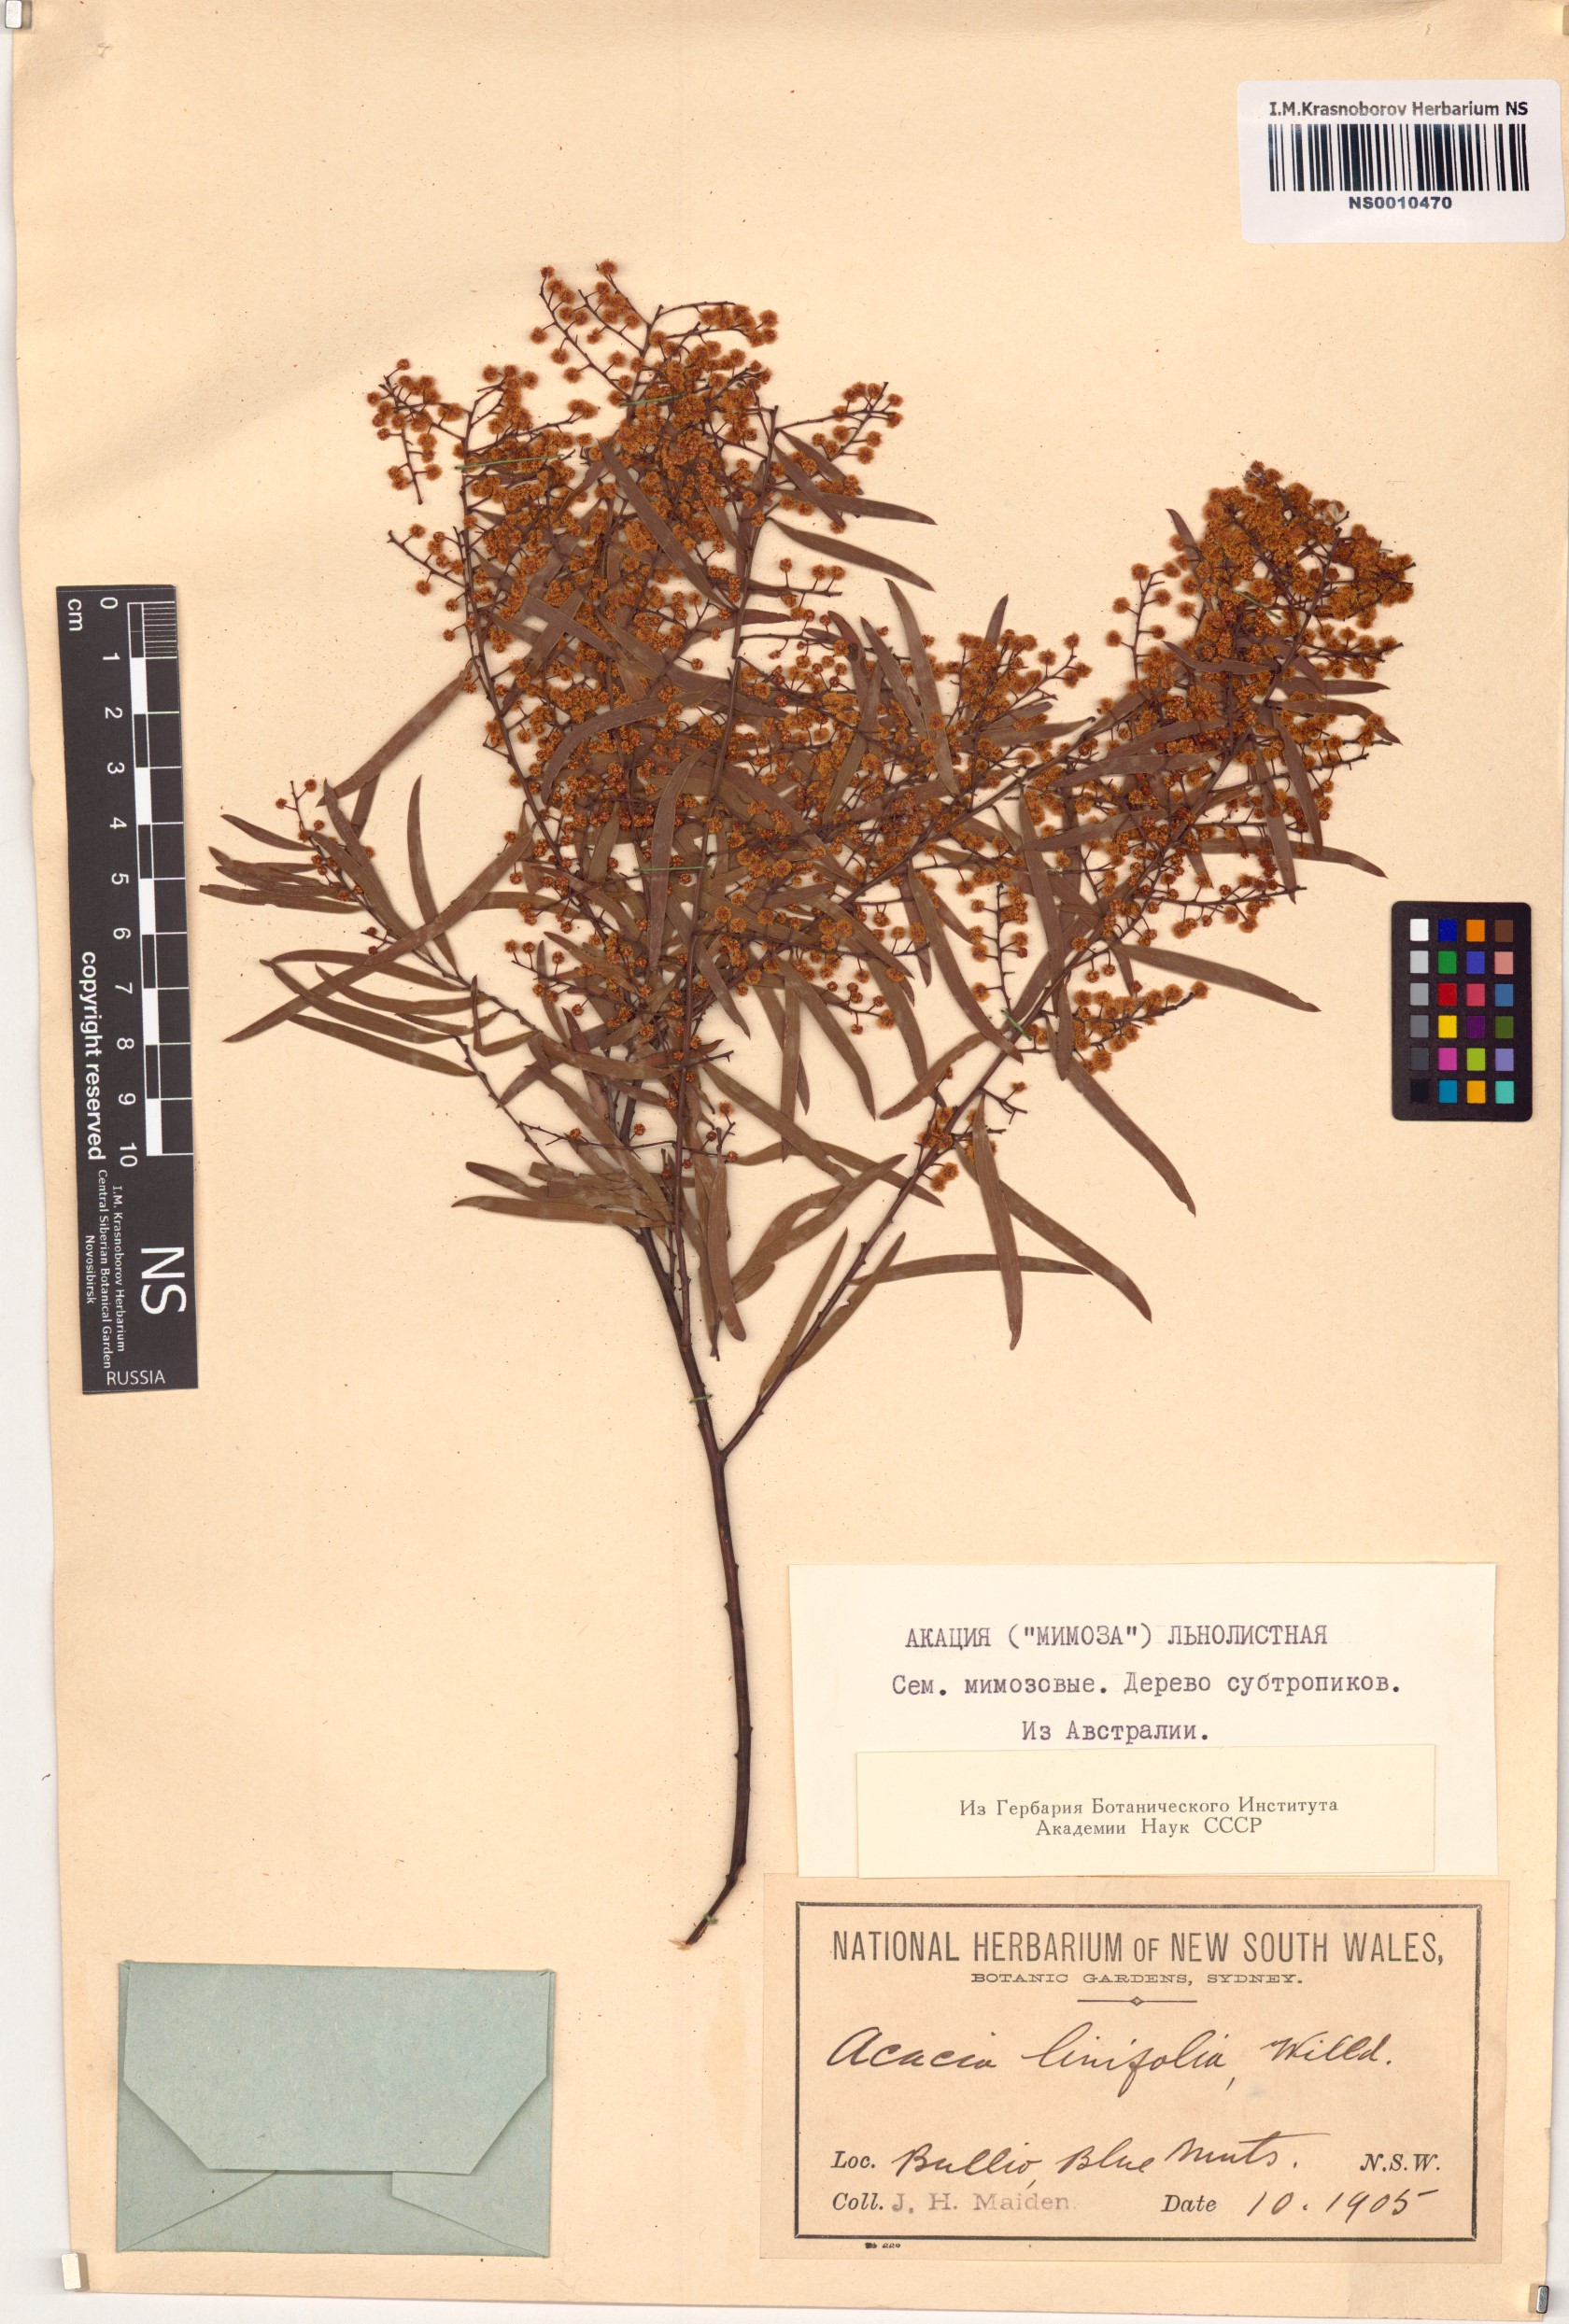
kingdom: Plantae
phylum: Tracheophyta
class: Magnoliopsida
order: Fabales
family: Fabaceae
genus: Acacia
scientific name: Acacia linifolia
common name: White wattle
